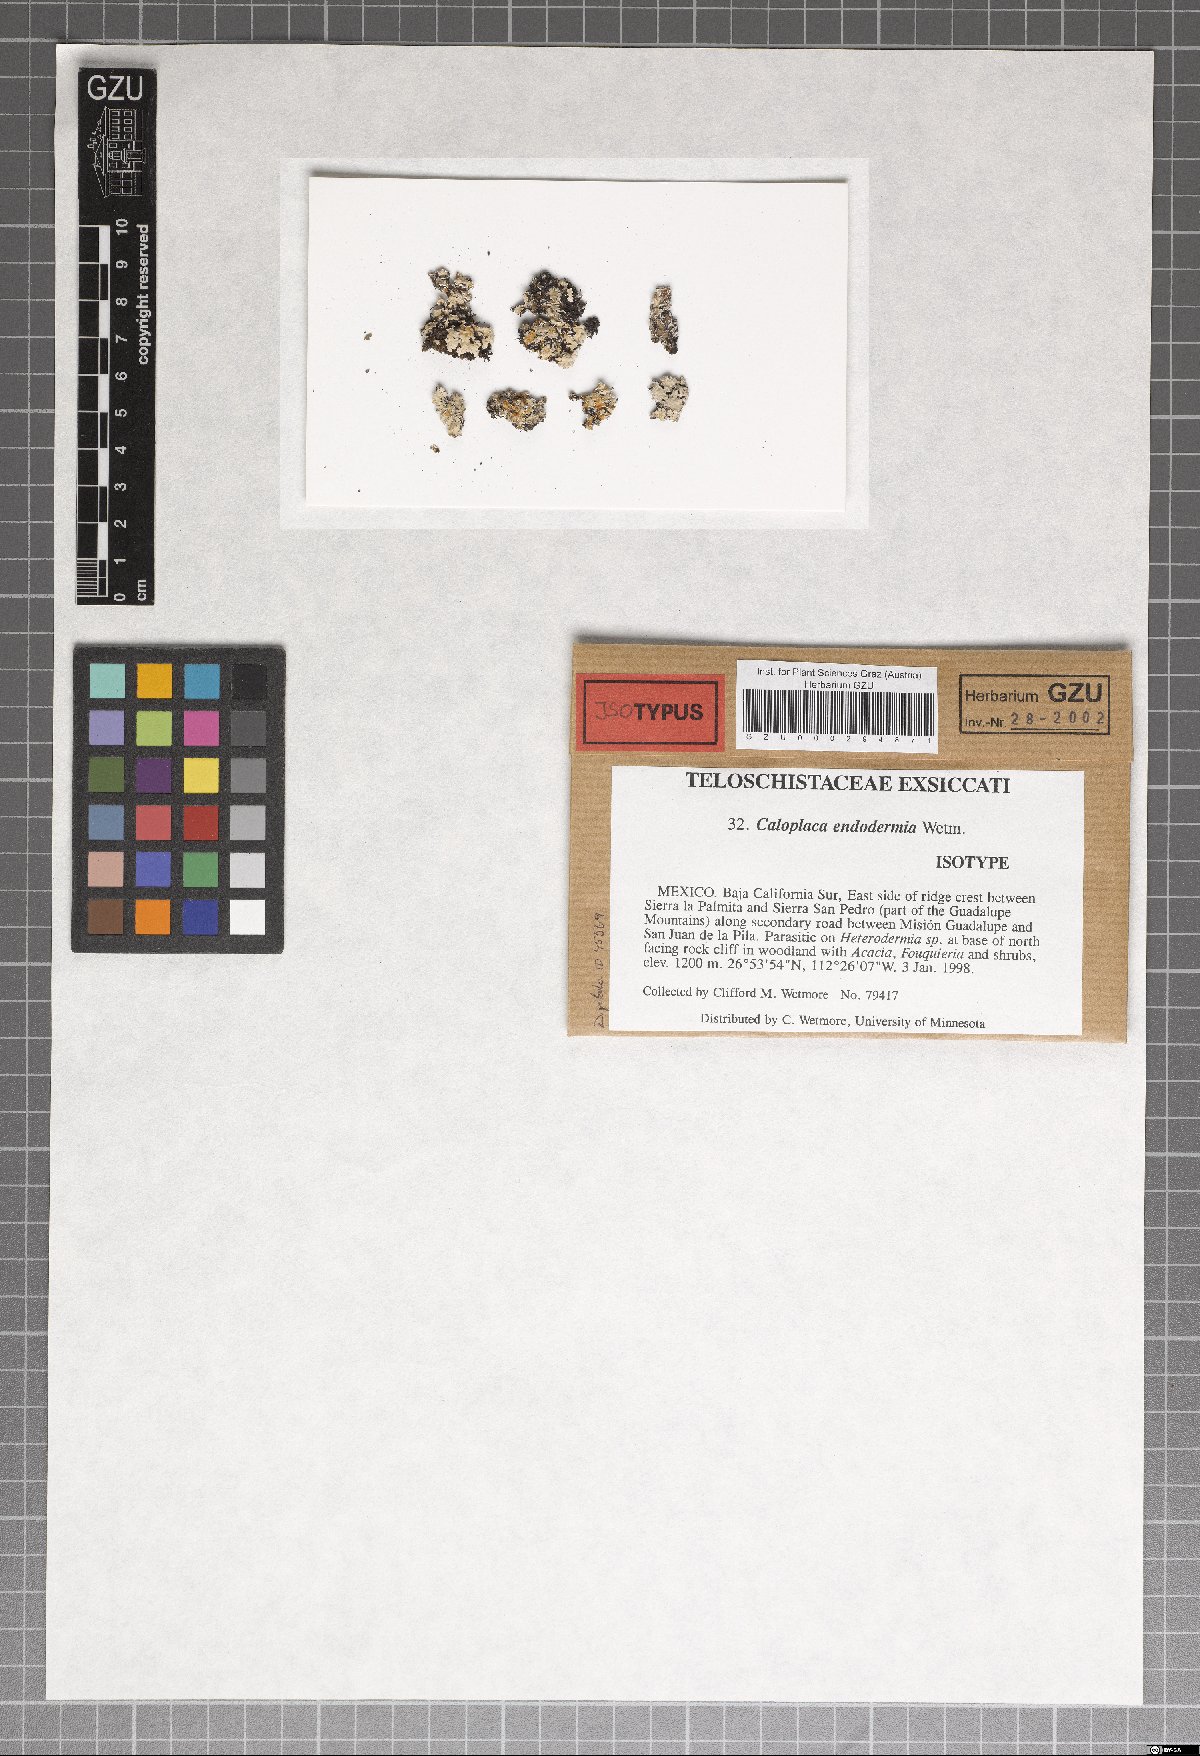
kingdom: Fungi
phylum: Ascomycota
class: Lecanoromycetes
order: Teloschistales
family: Teloschistaceae
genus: Caloplaca
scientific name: Caloplaca endodermia
